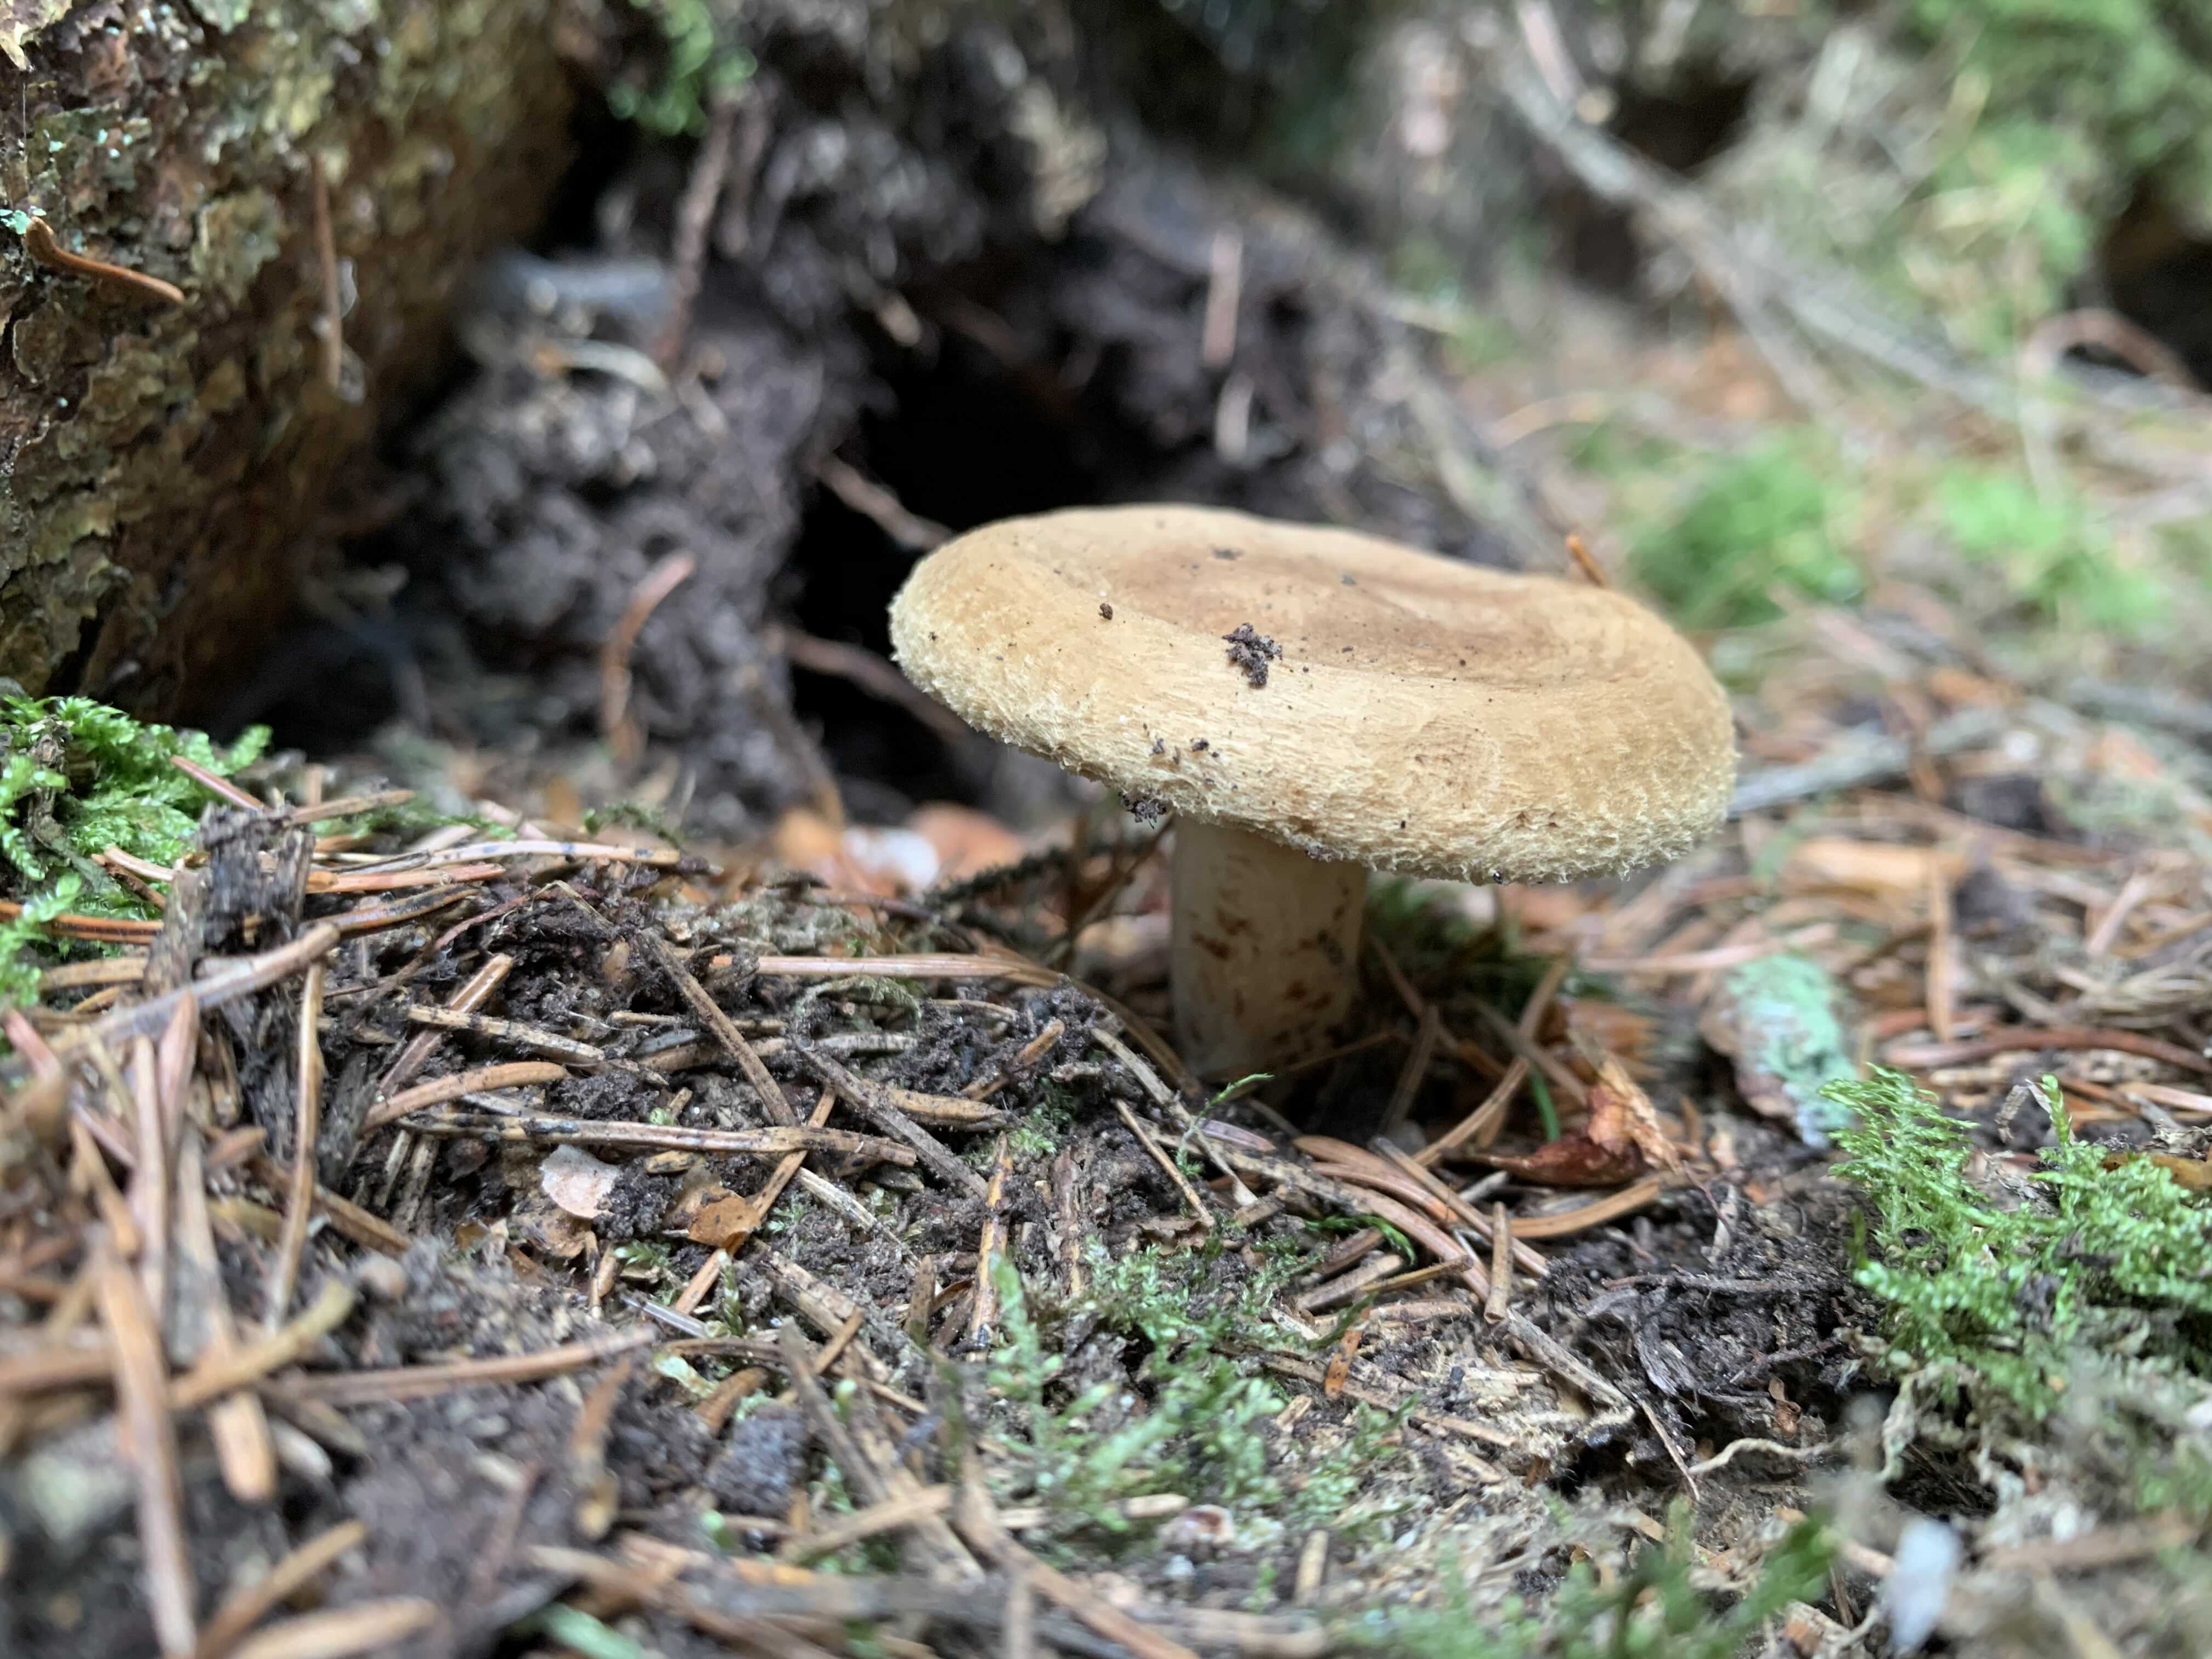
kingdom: Fungi
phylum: Basidiomycota
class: Agaricomycetes
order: Boletales
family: Paxillaceae
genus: Paxillus
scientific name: Paxillus involutus
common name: almindelig netbladhat
